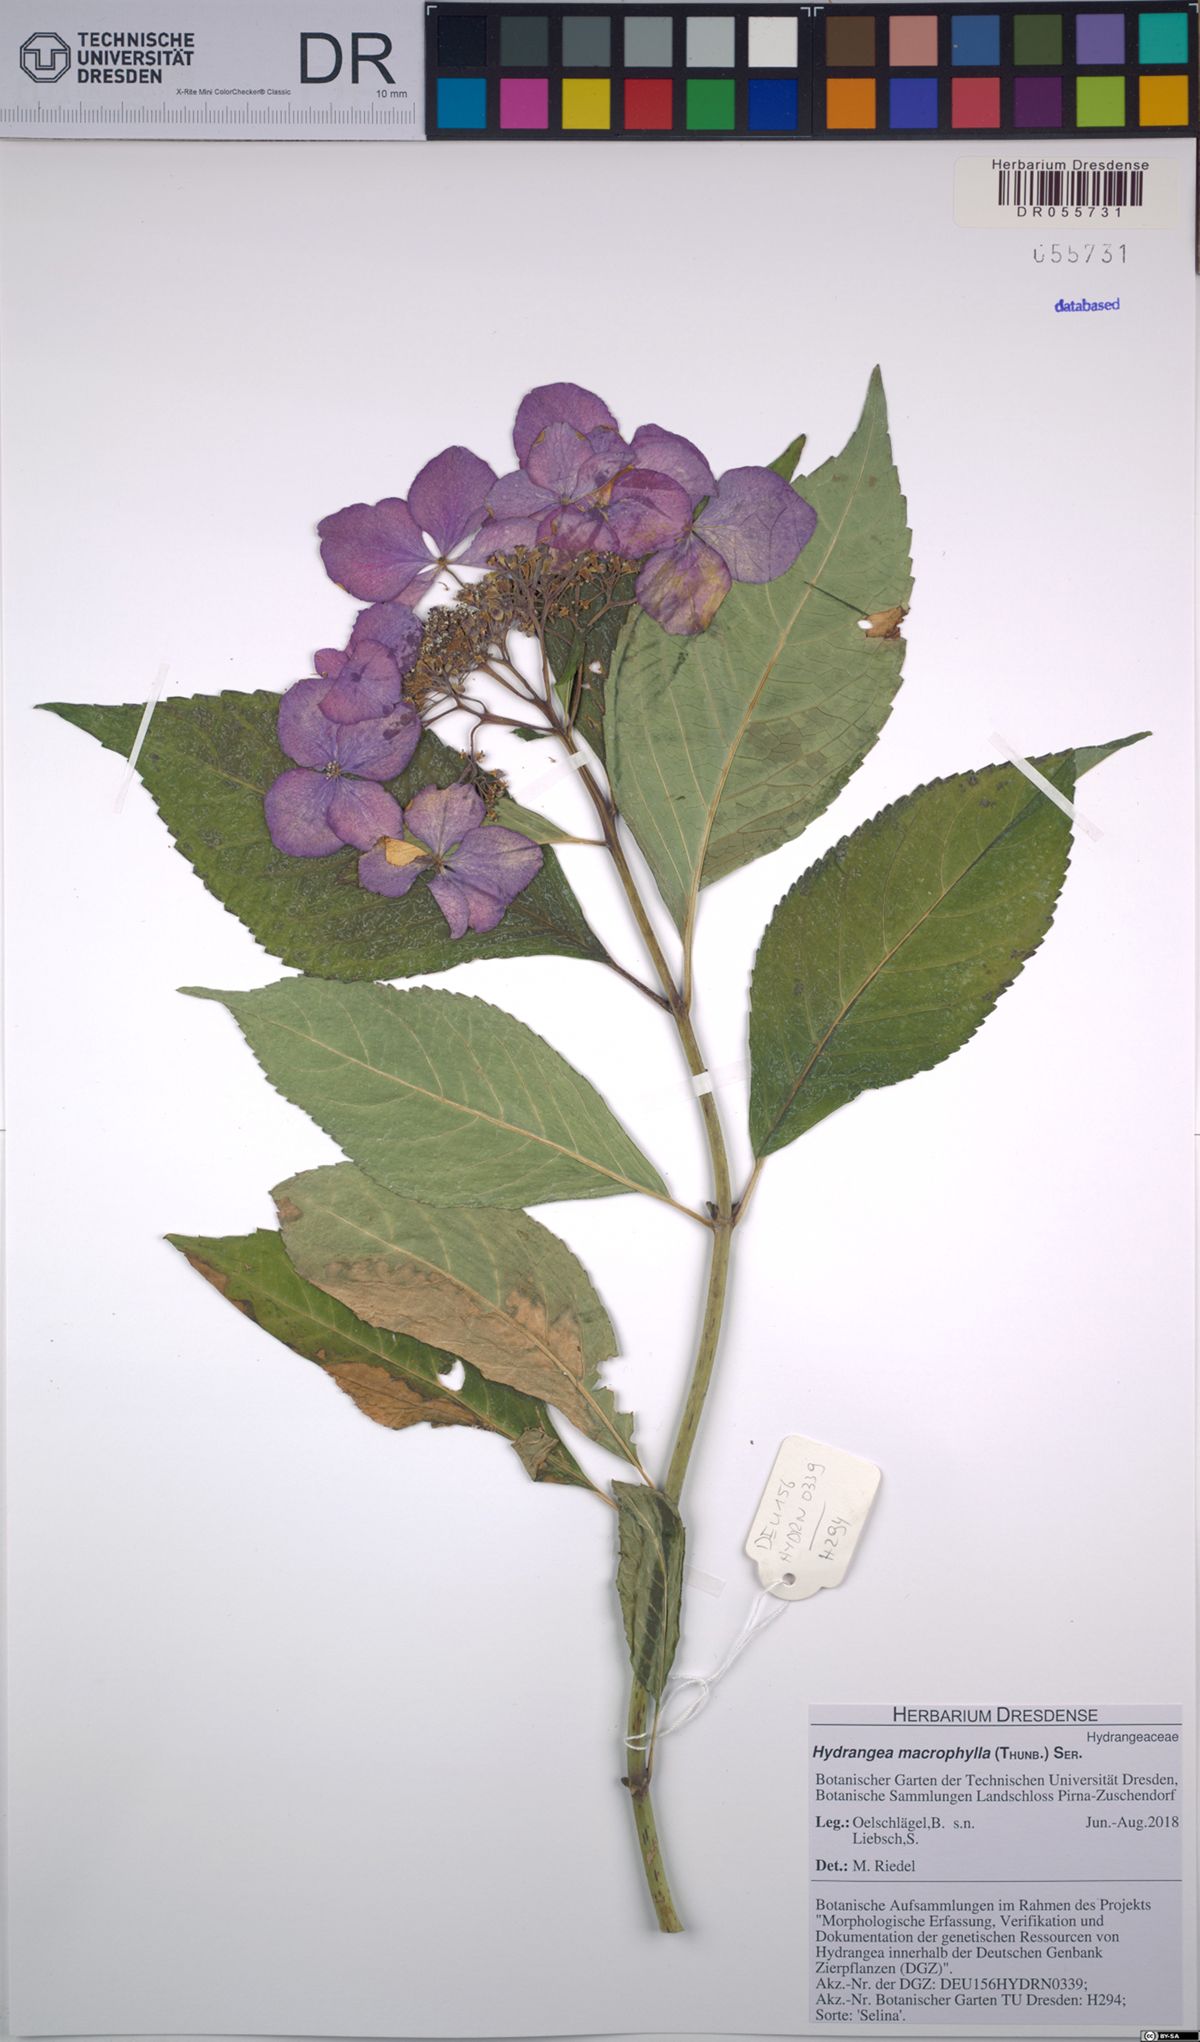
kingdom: Plantae
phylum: Tracheophyta
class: Magnoliopsida
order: Cornales
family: Hydrangeaceae
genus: Hydrangea
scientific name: Hydrangea macrophylla
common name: Hydrangea
